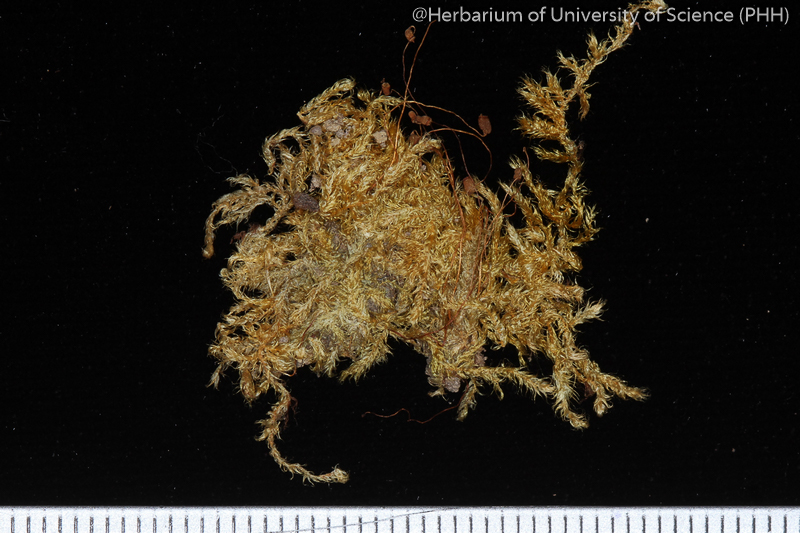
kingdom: Plantae
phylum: Bryophyta
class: Bryopsida
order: Hypnales
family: Hypnaceae
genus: Vesicularia
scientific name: Vesicularia reticulata
